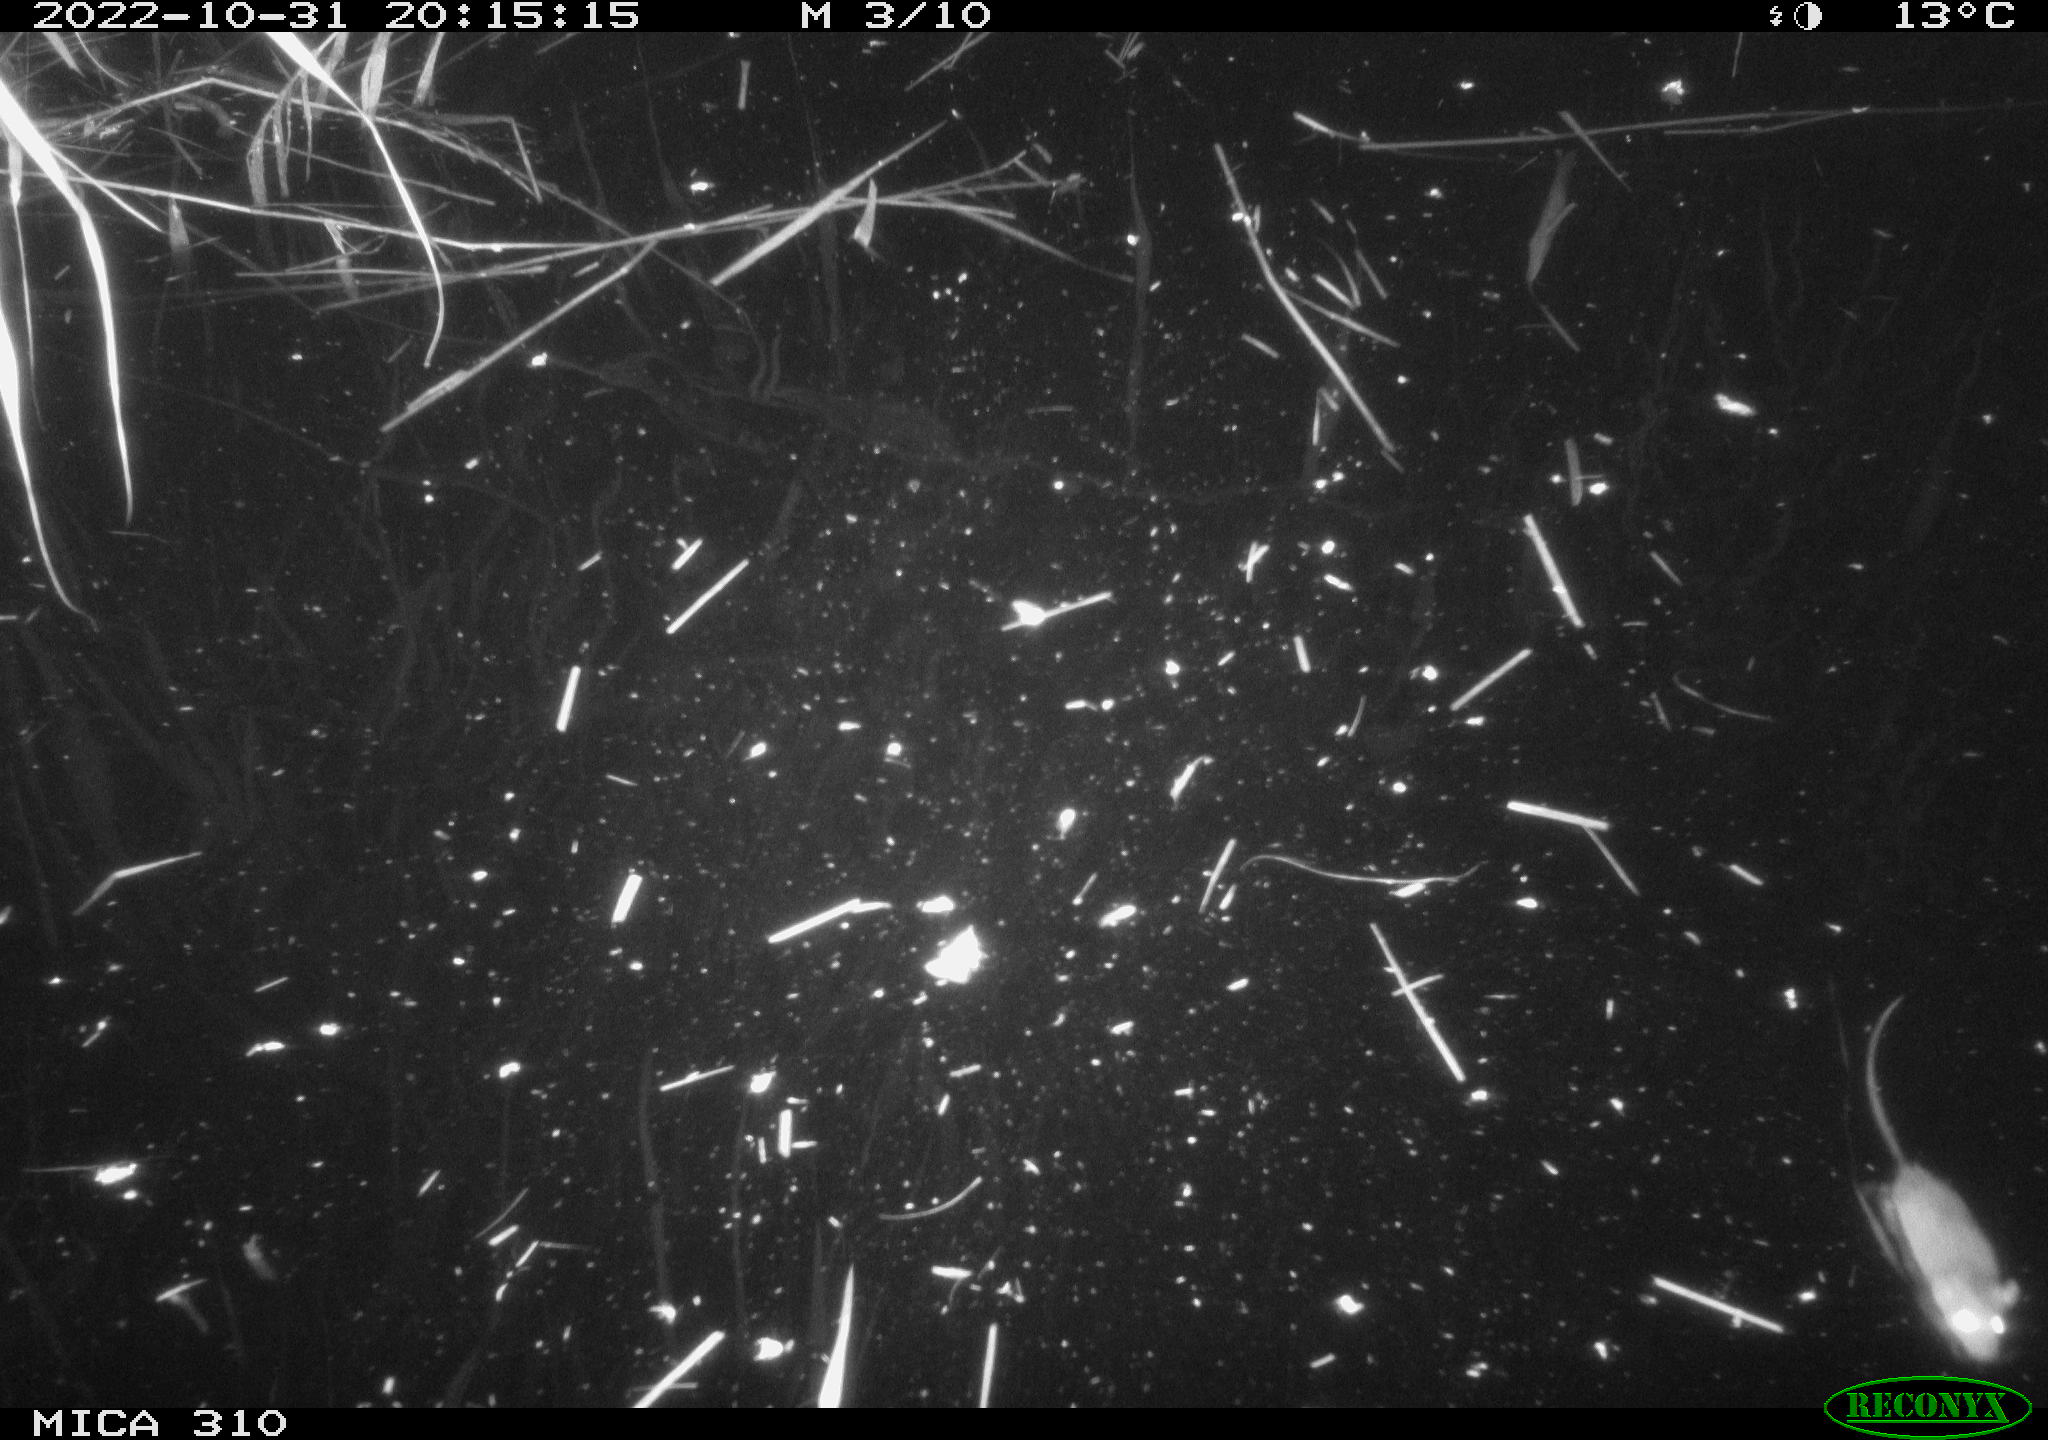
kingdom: Animalia
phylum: Chordata
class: Mammalia
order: Rodentia
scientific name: Rodentia
